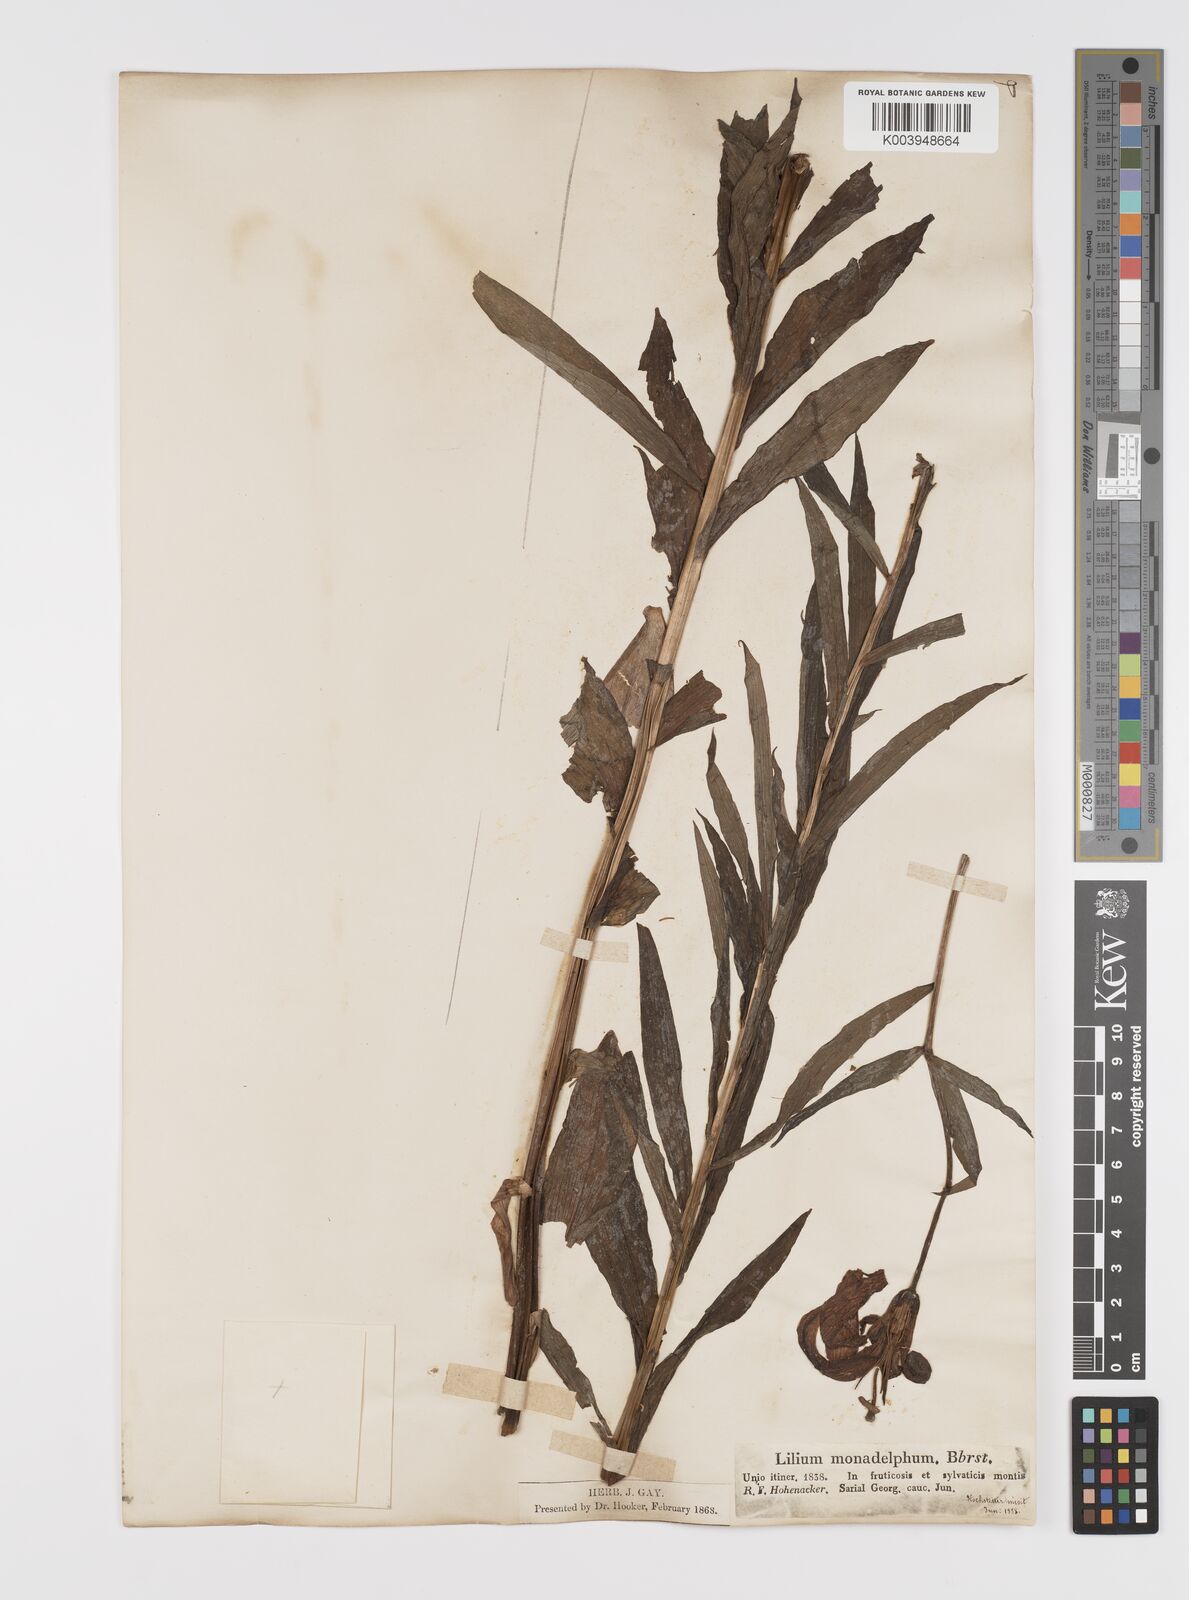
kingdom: Plantae
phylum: Tracheophyta
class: Liliopsida
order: Liliales
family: Liliaceae
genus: Lilium
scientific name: Lilium monadelphum
